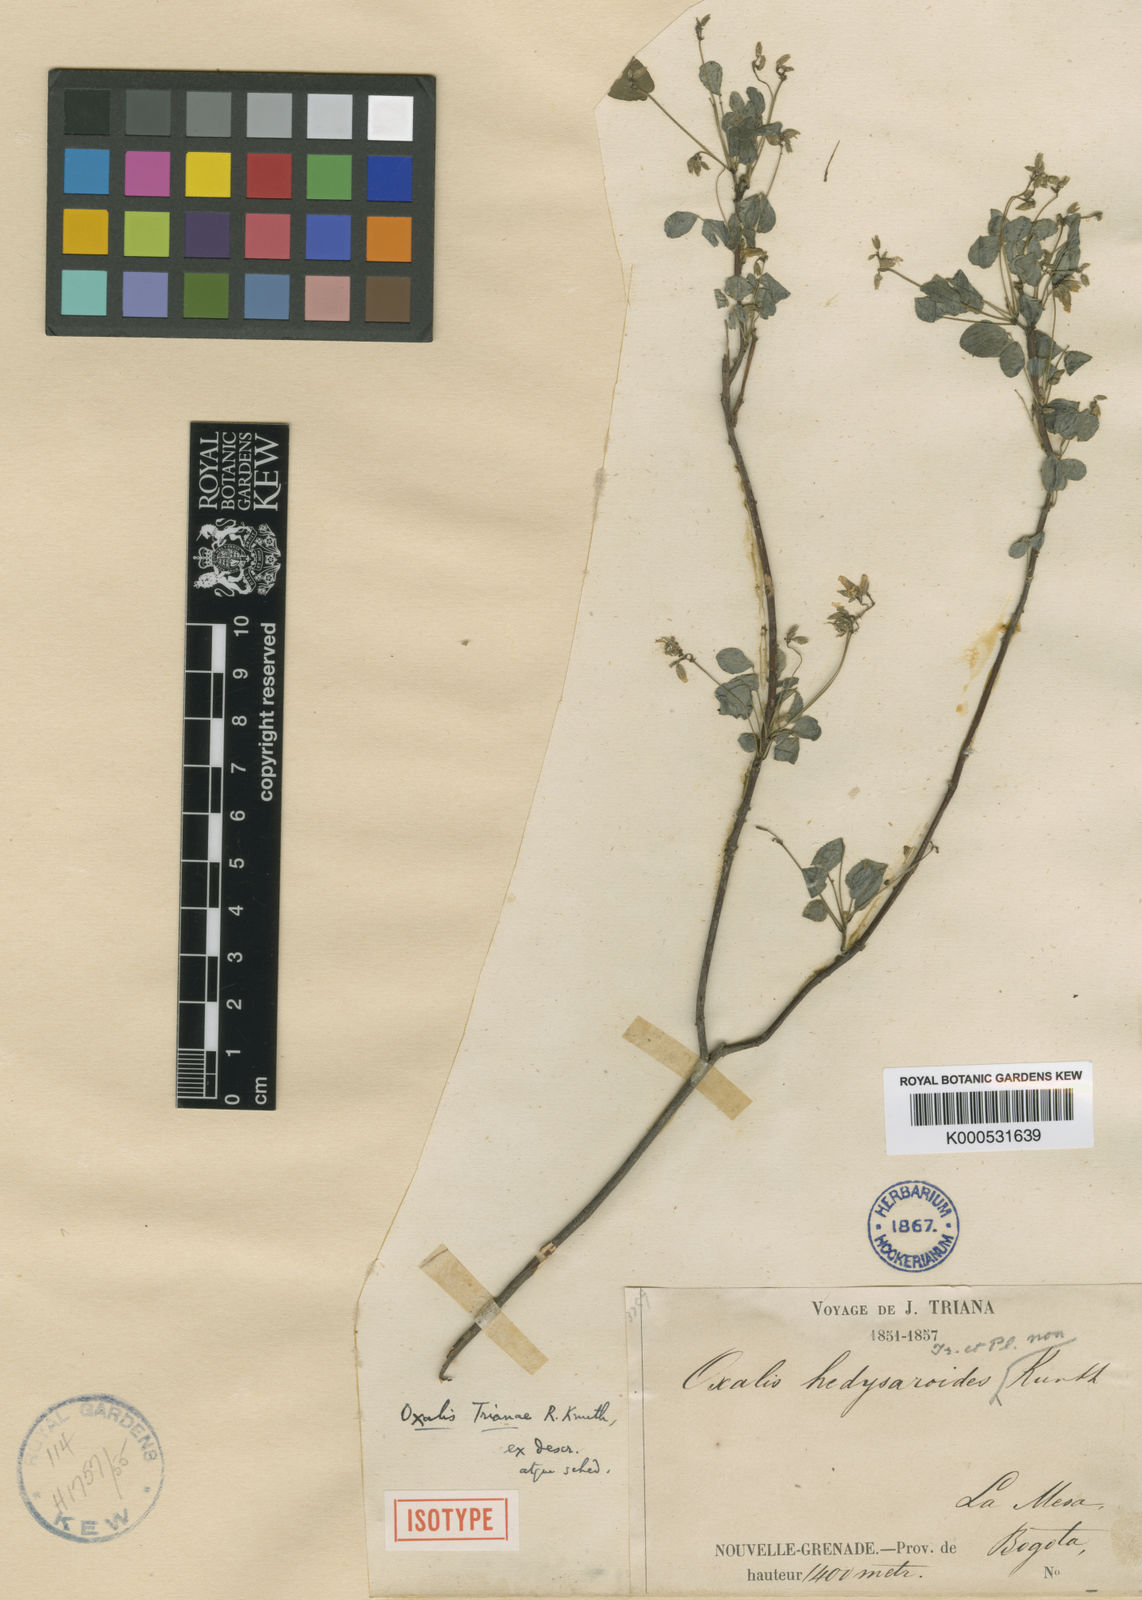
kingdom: Plantae
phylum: Tracheophyta
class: Magnoliopsida
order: Oxalidales
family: Oxalidaceae
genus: Oxalis
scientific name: Oxalis trianae
